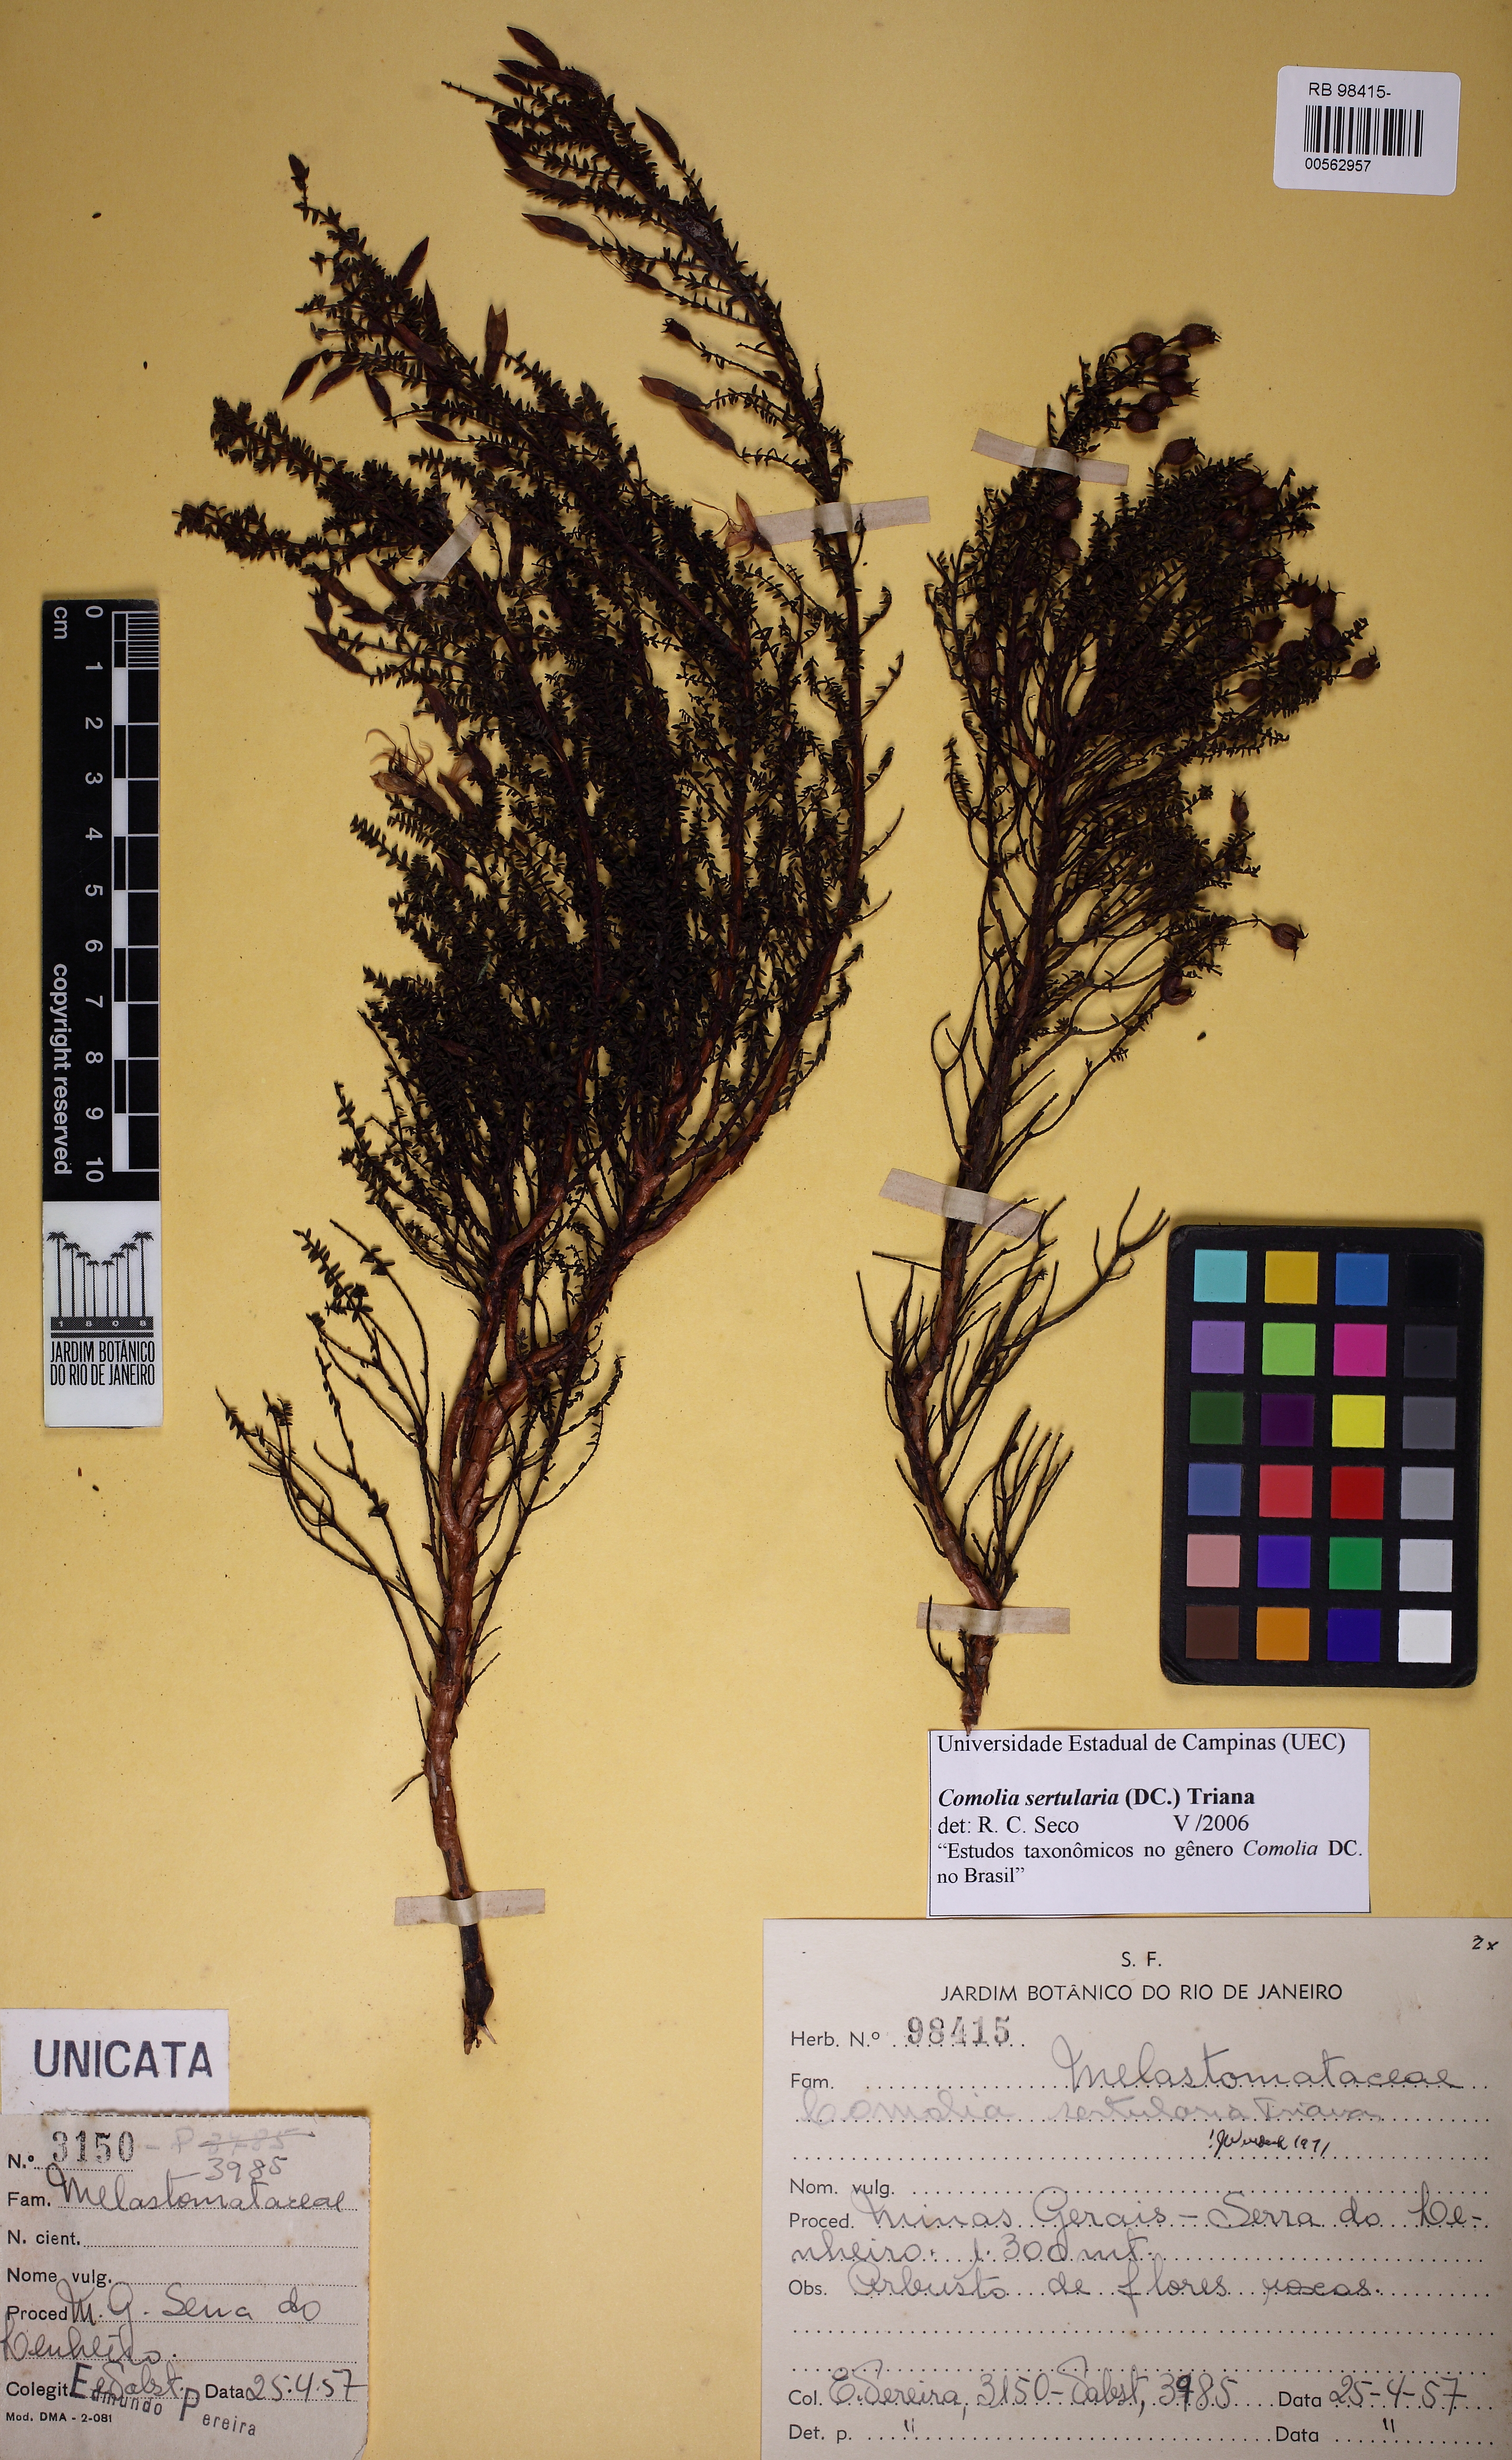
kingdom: Plantae
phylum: Tracheophyta
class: Magnoliopsida
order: Myrtales
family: Melastomataceae
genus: Fritzschia
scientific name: Fritzschia sertularia
